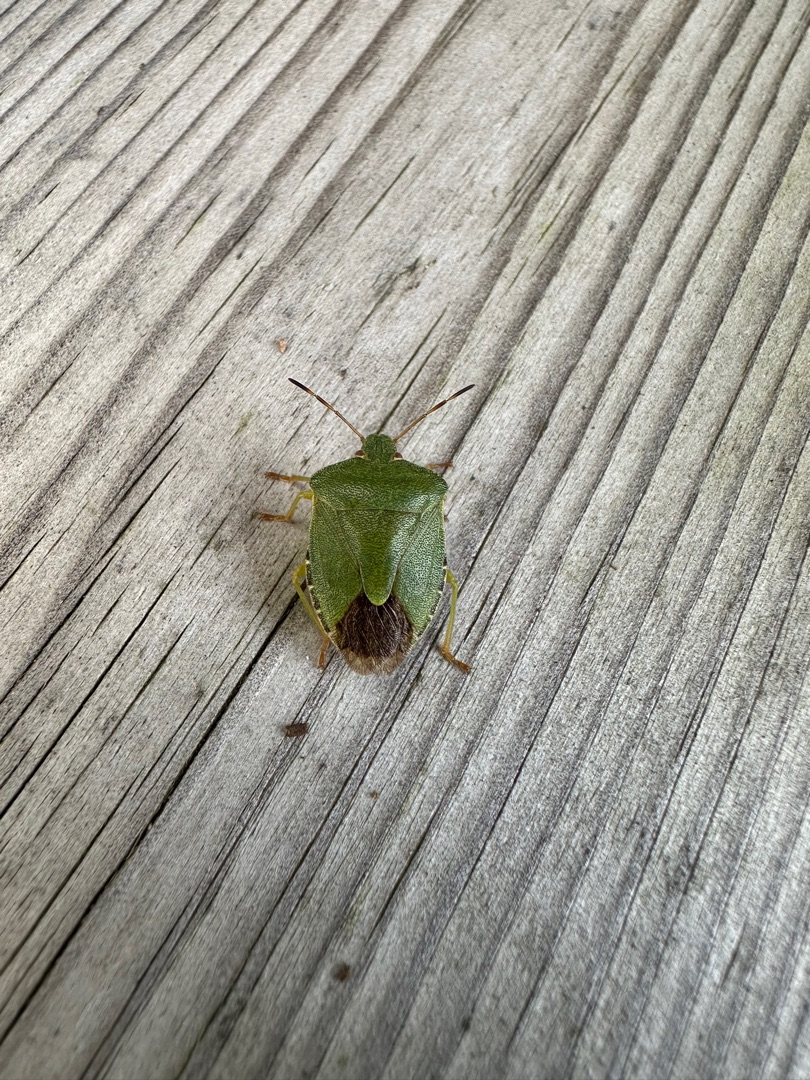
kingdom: Animalia
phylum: Arthropoda
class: Insecta
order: Hemiptera
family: Pentatomidae
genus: Palomena
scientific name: Palomena prasina
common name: Grøn bredtæge
